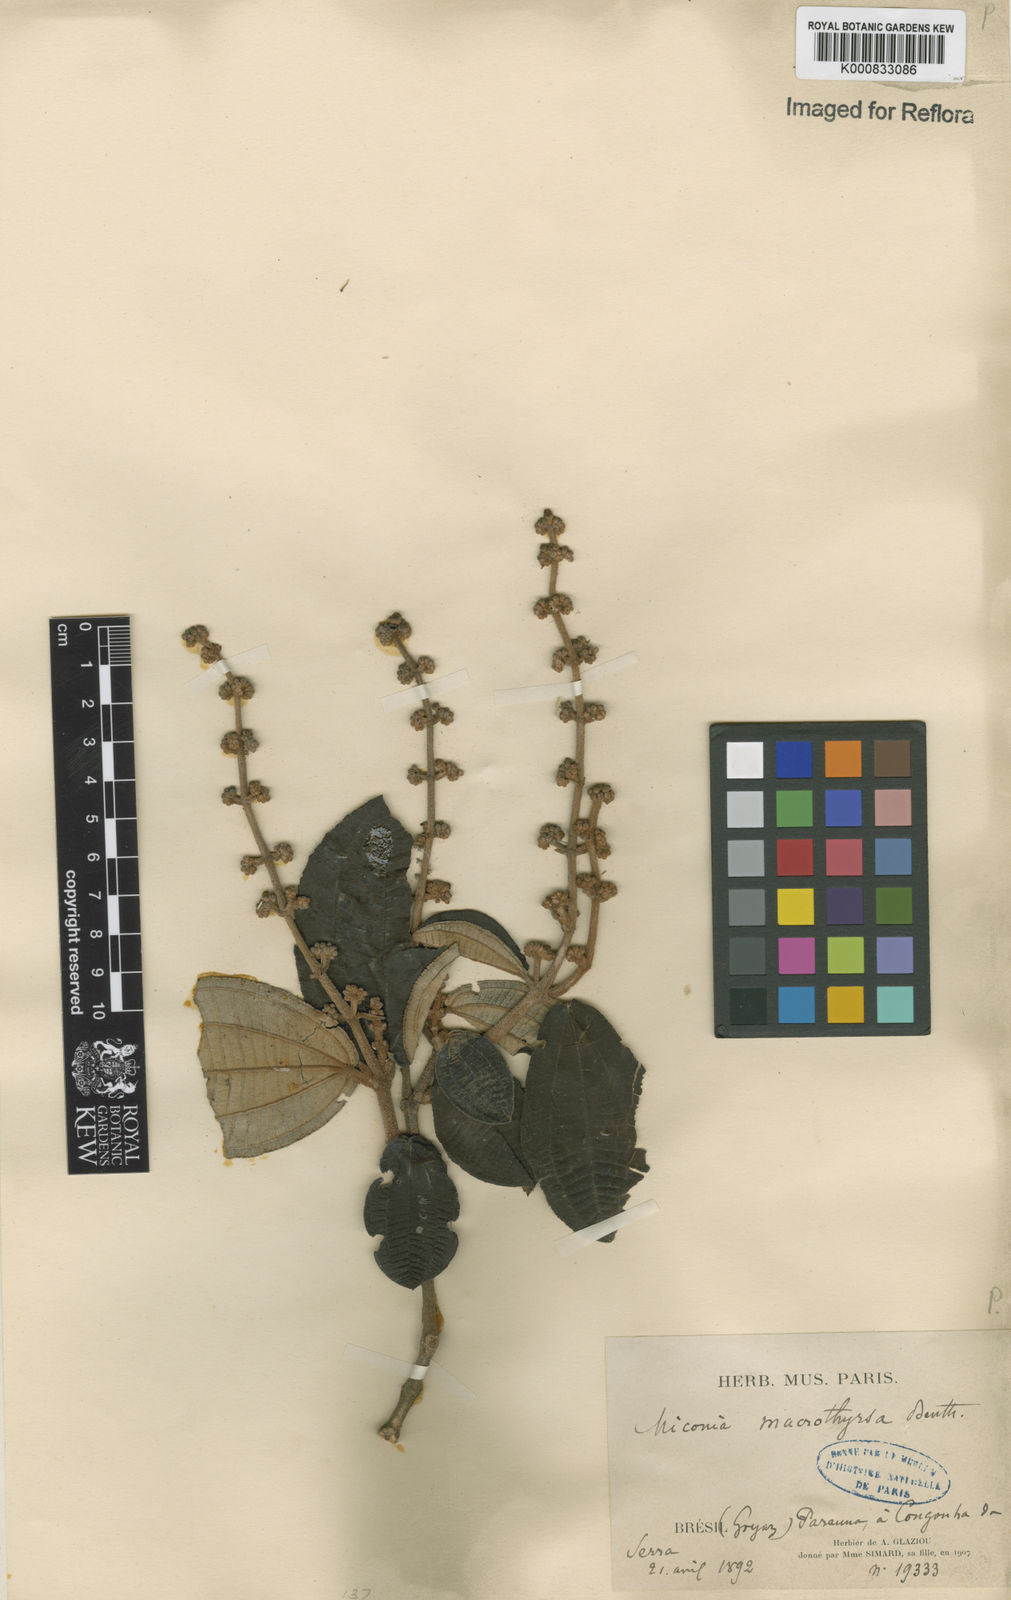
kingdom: Plantae
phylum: Tracheophyta
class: Magnoliopsida
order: Myrtales
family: Melastomataceae
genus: Miconia
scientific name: Miconia macrothyrsa
